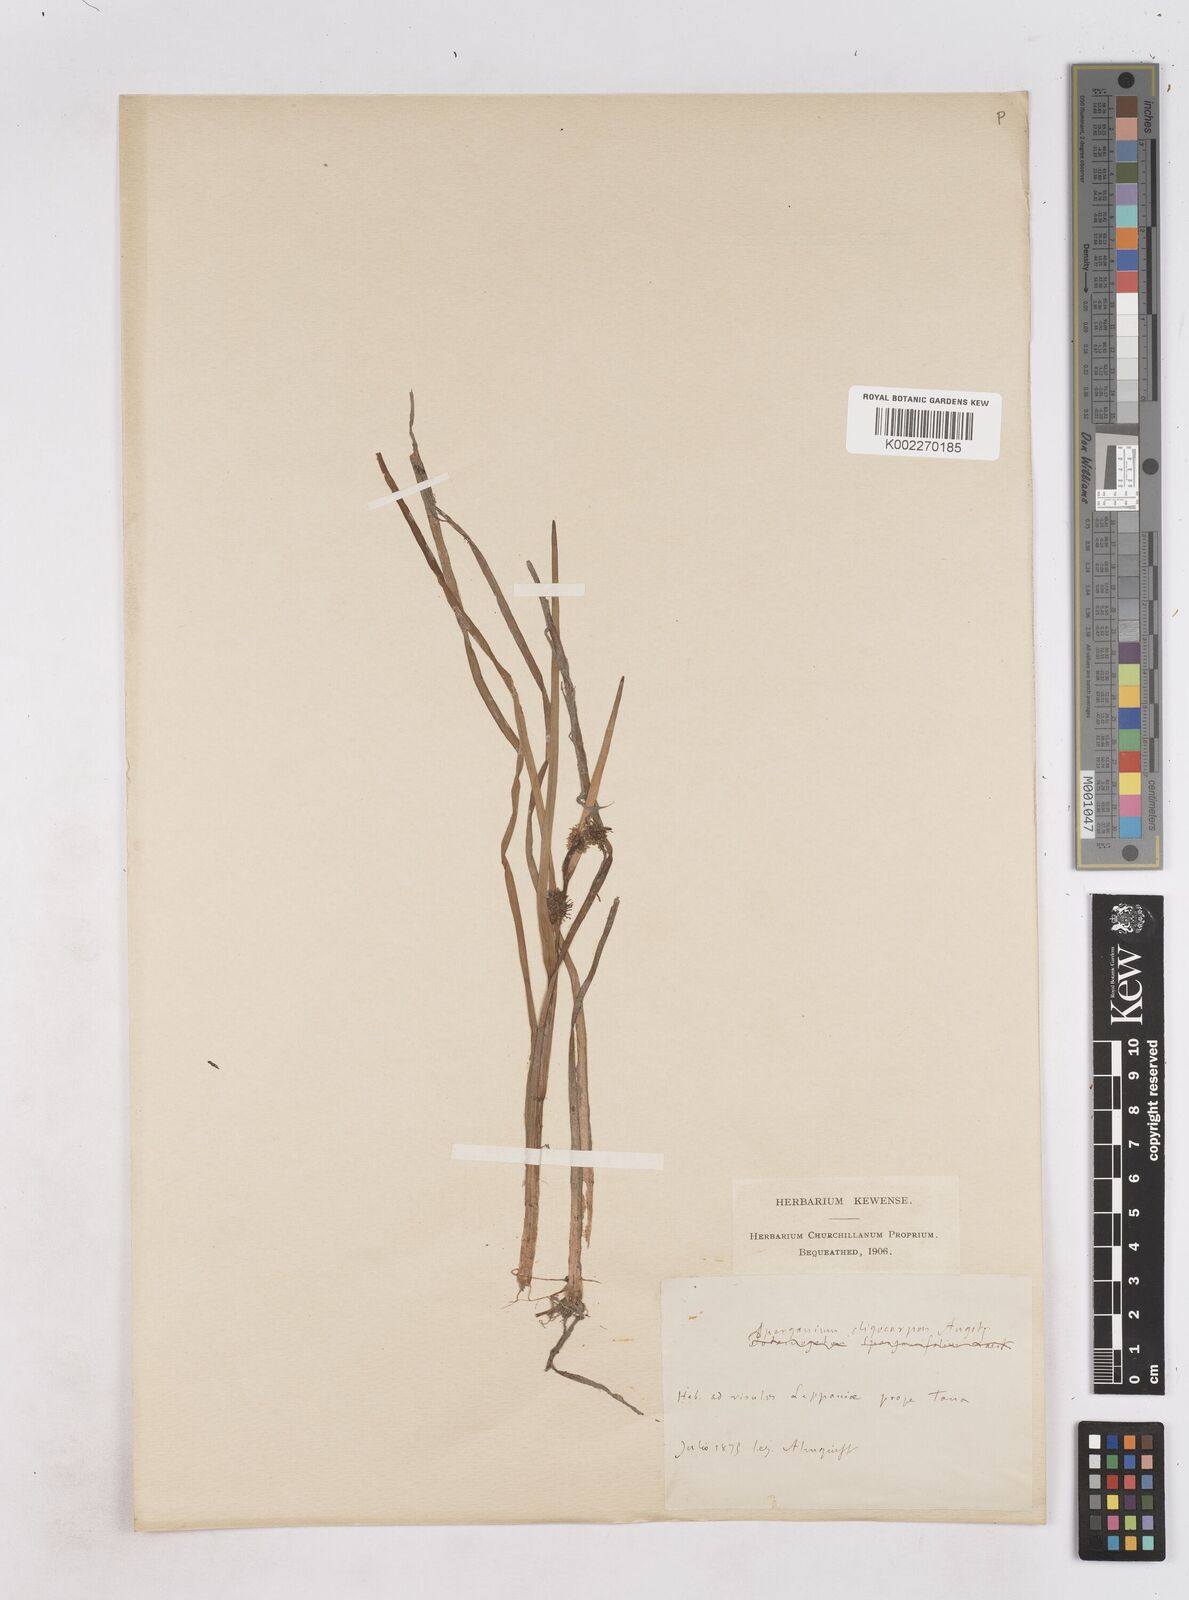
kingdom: Plantae
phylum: Tracheophyta
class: Liliopsida
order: Poales
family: Typhaceae
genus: Sparganium
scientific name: Sparganium oligocarpon
